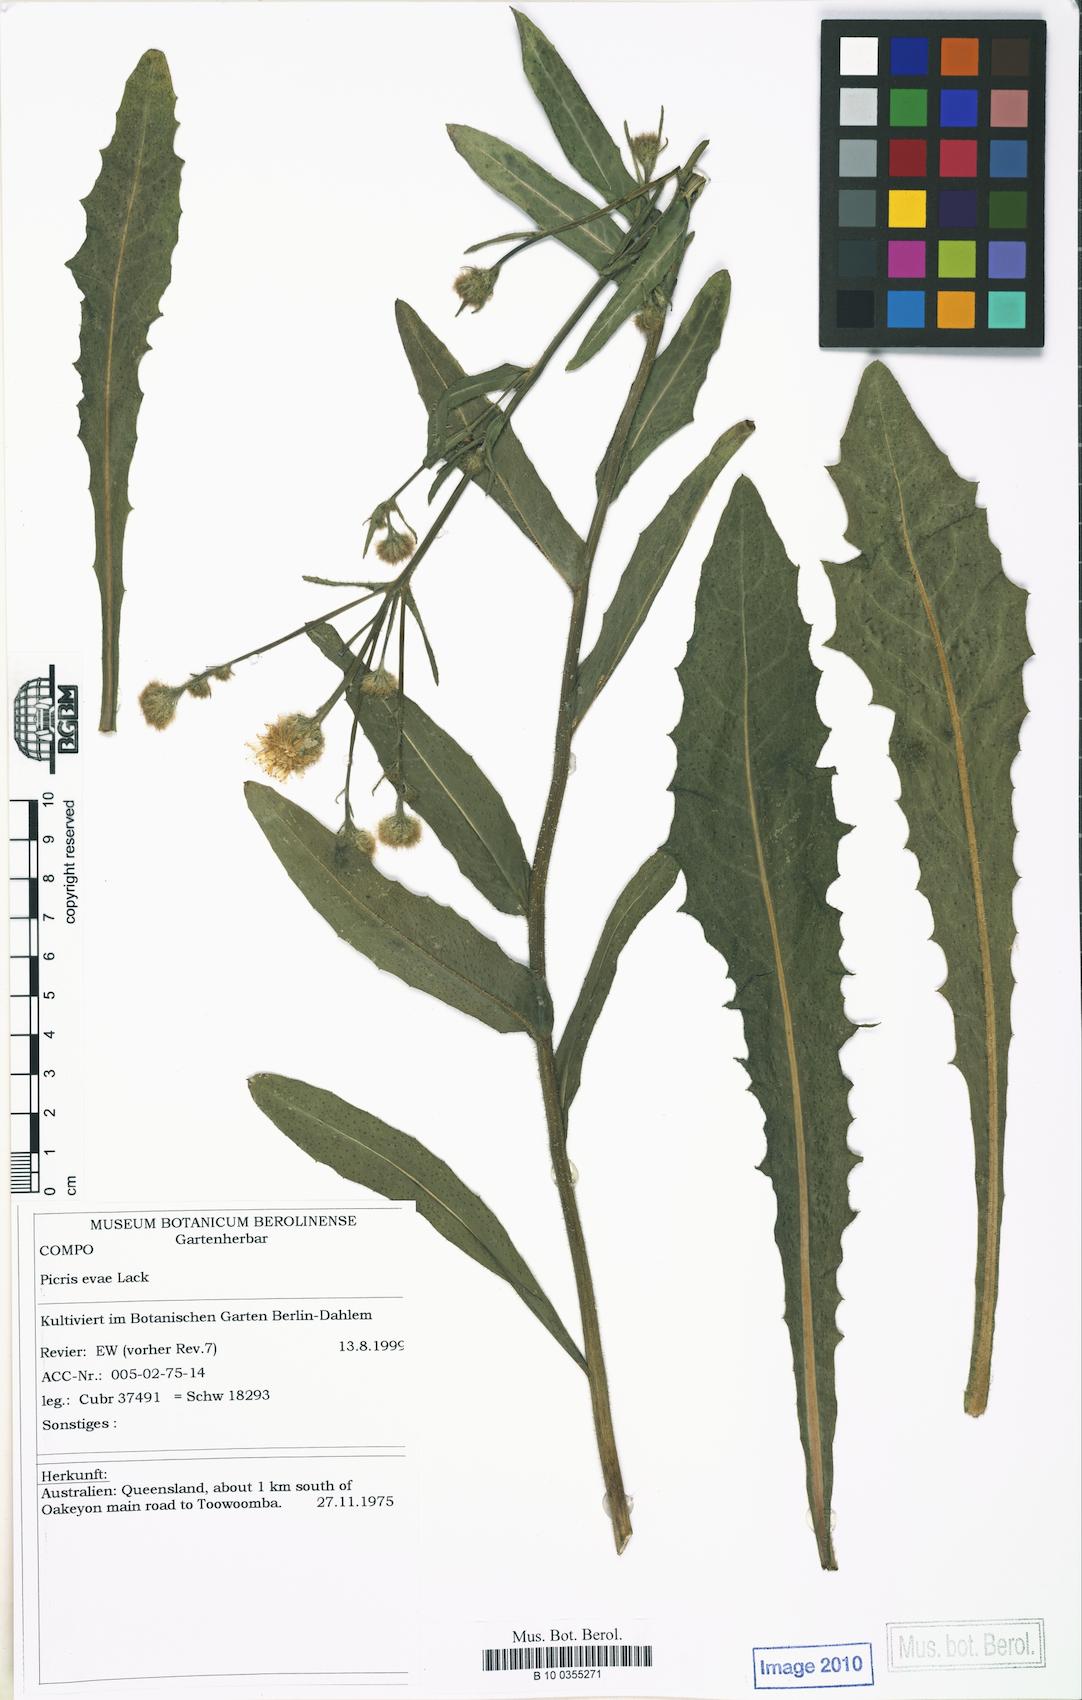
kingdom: Plantae
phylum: Tracheophyta
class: Magnoliopsida
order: Asterales
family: Asteraceae
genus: Picris
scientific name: Picris evae
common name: Hawkweed
